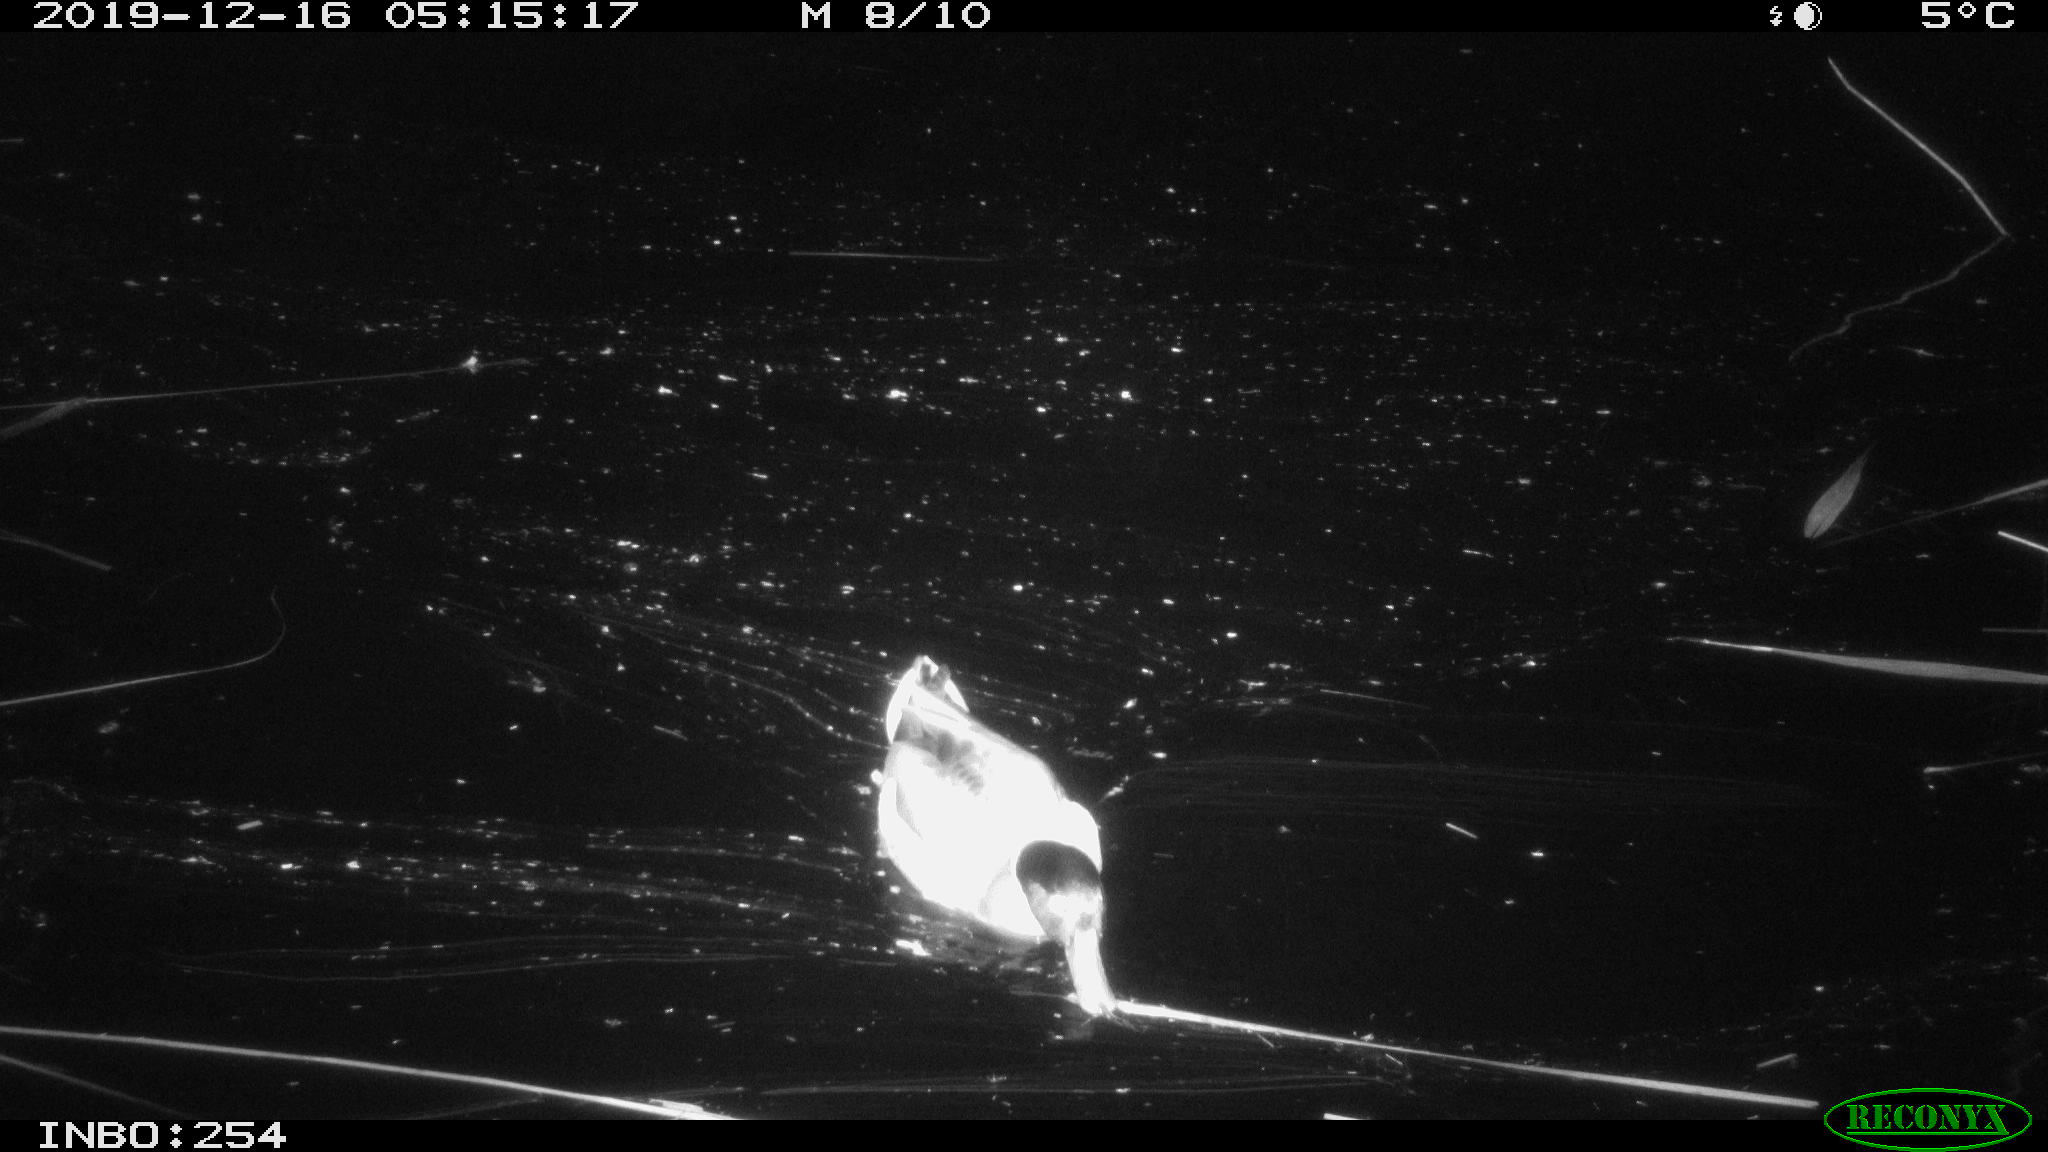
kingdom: Animalia
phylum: Chordata
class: Aves
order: Anseriformes
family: Anatidae
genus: Anas
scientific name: Anas platyrhynchos
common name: Mallard
